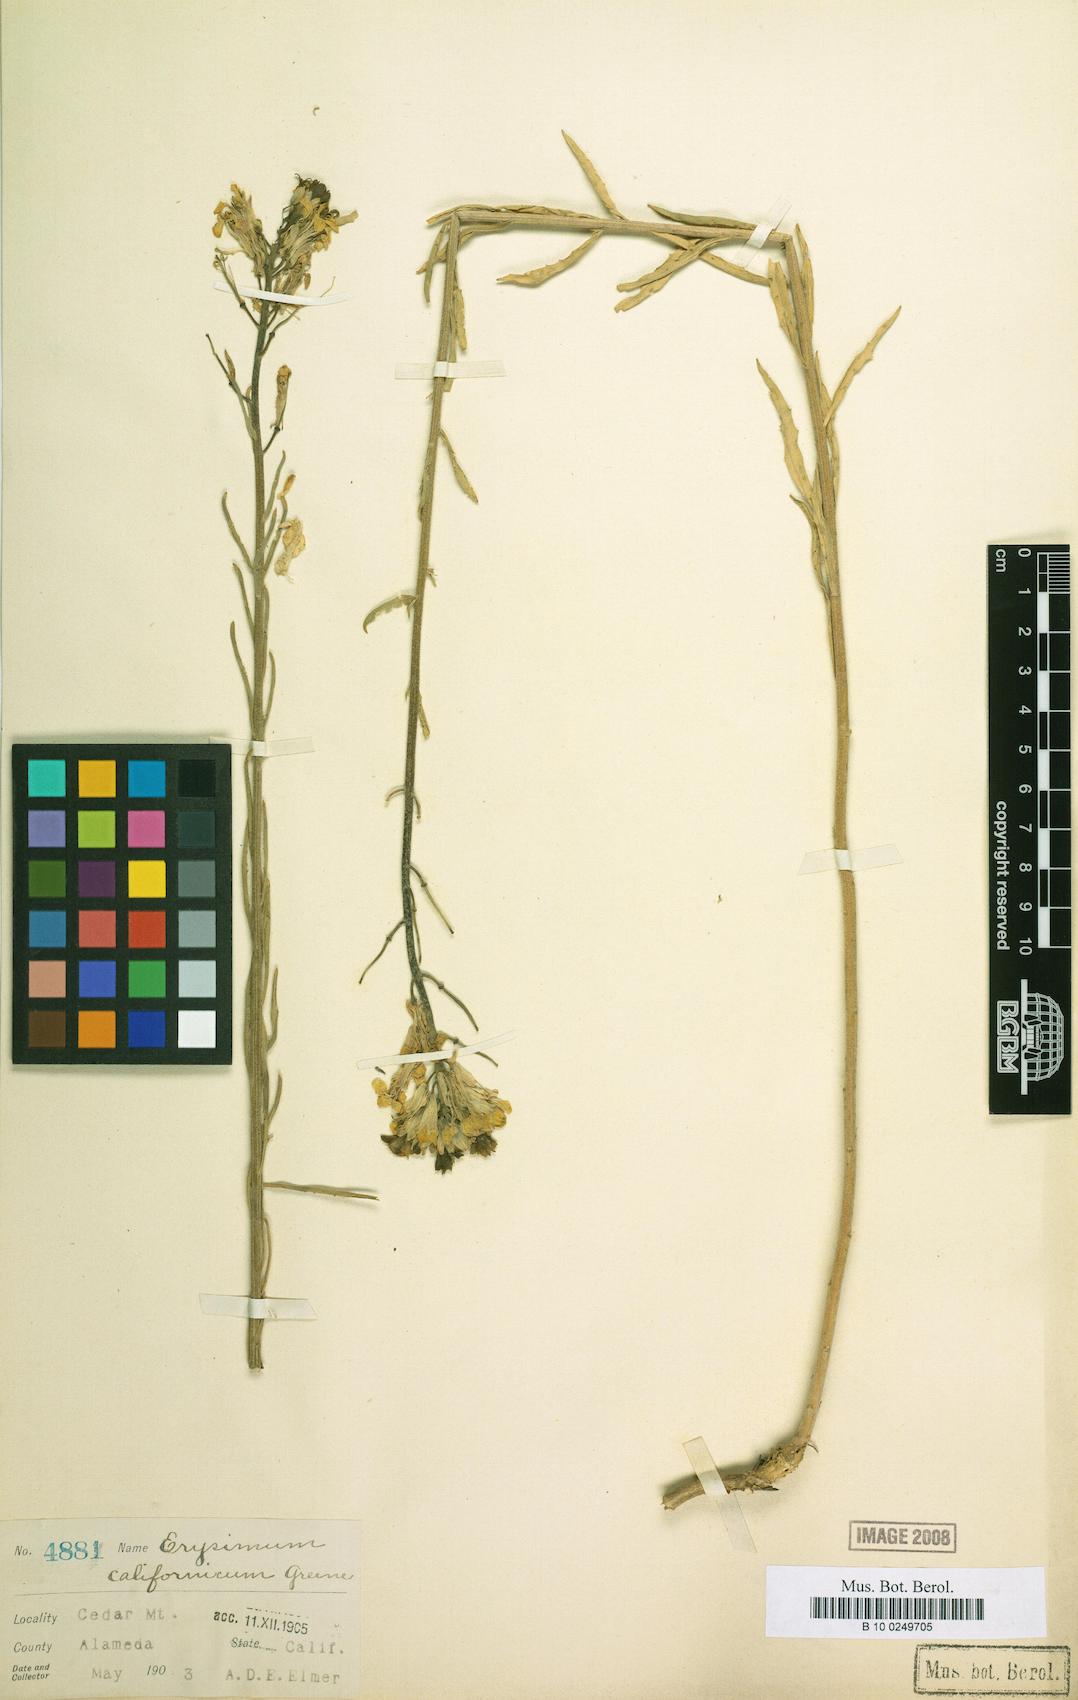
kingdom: Plantae
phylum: Tracheophyta
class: Magnoliopsida
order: Brassicales
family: Brassicaceae
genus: Erysimum
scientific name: Erysimum capitatum
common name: Western wallflower
